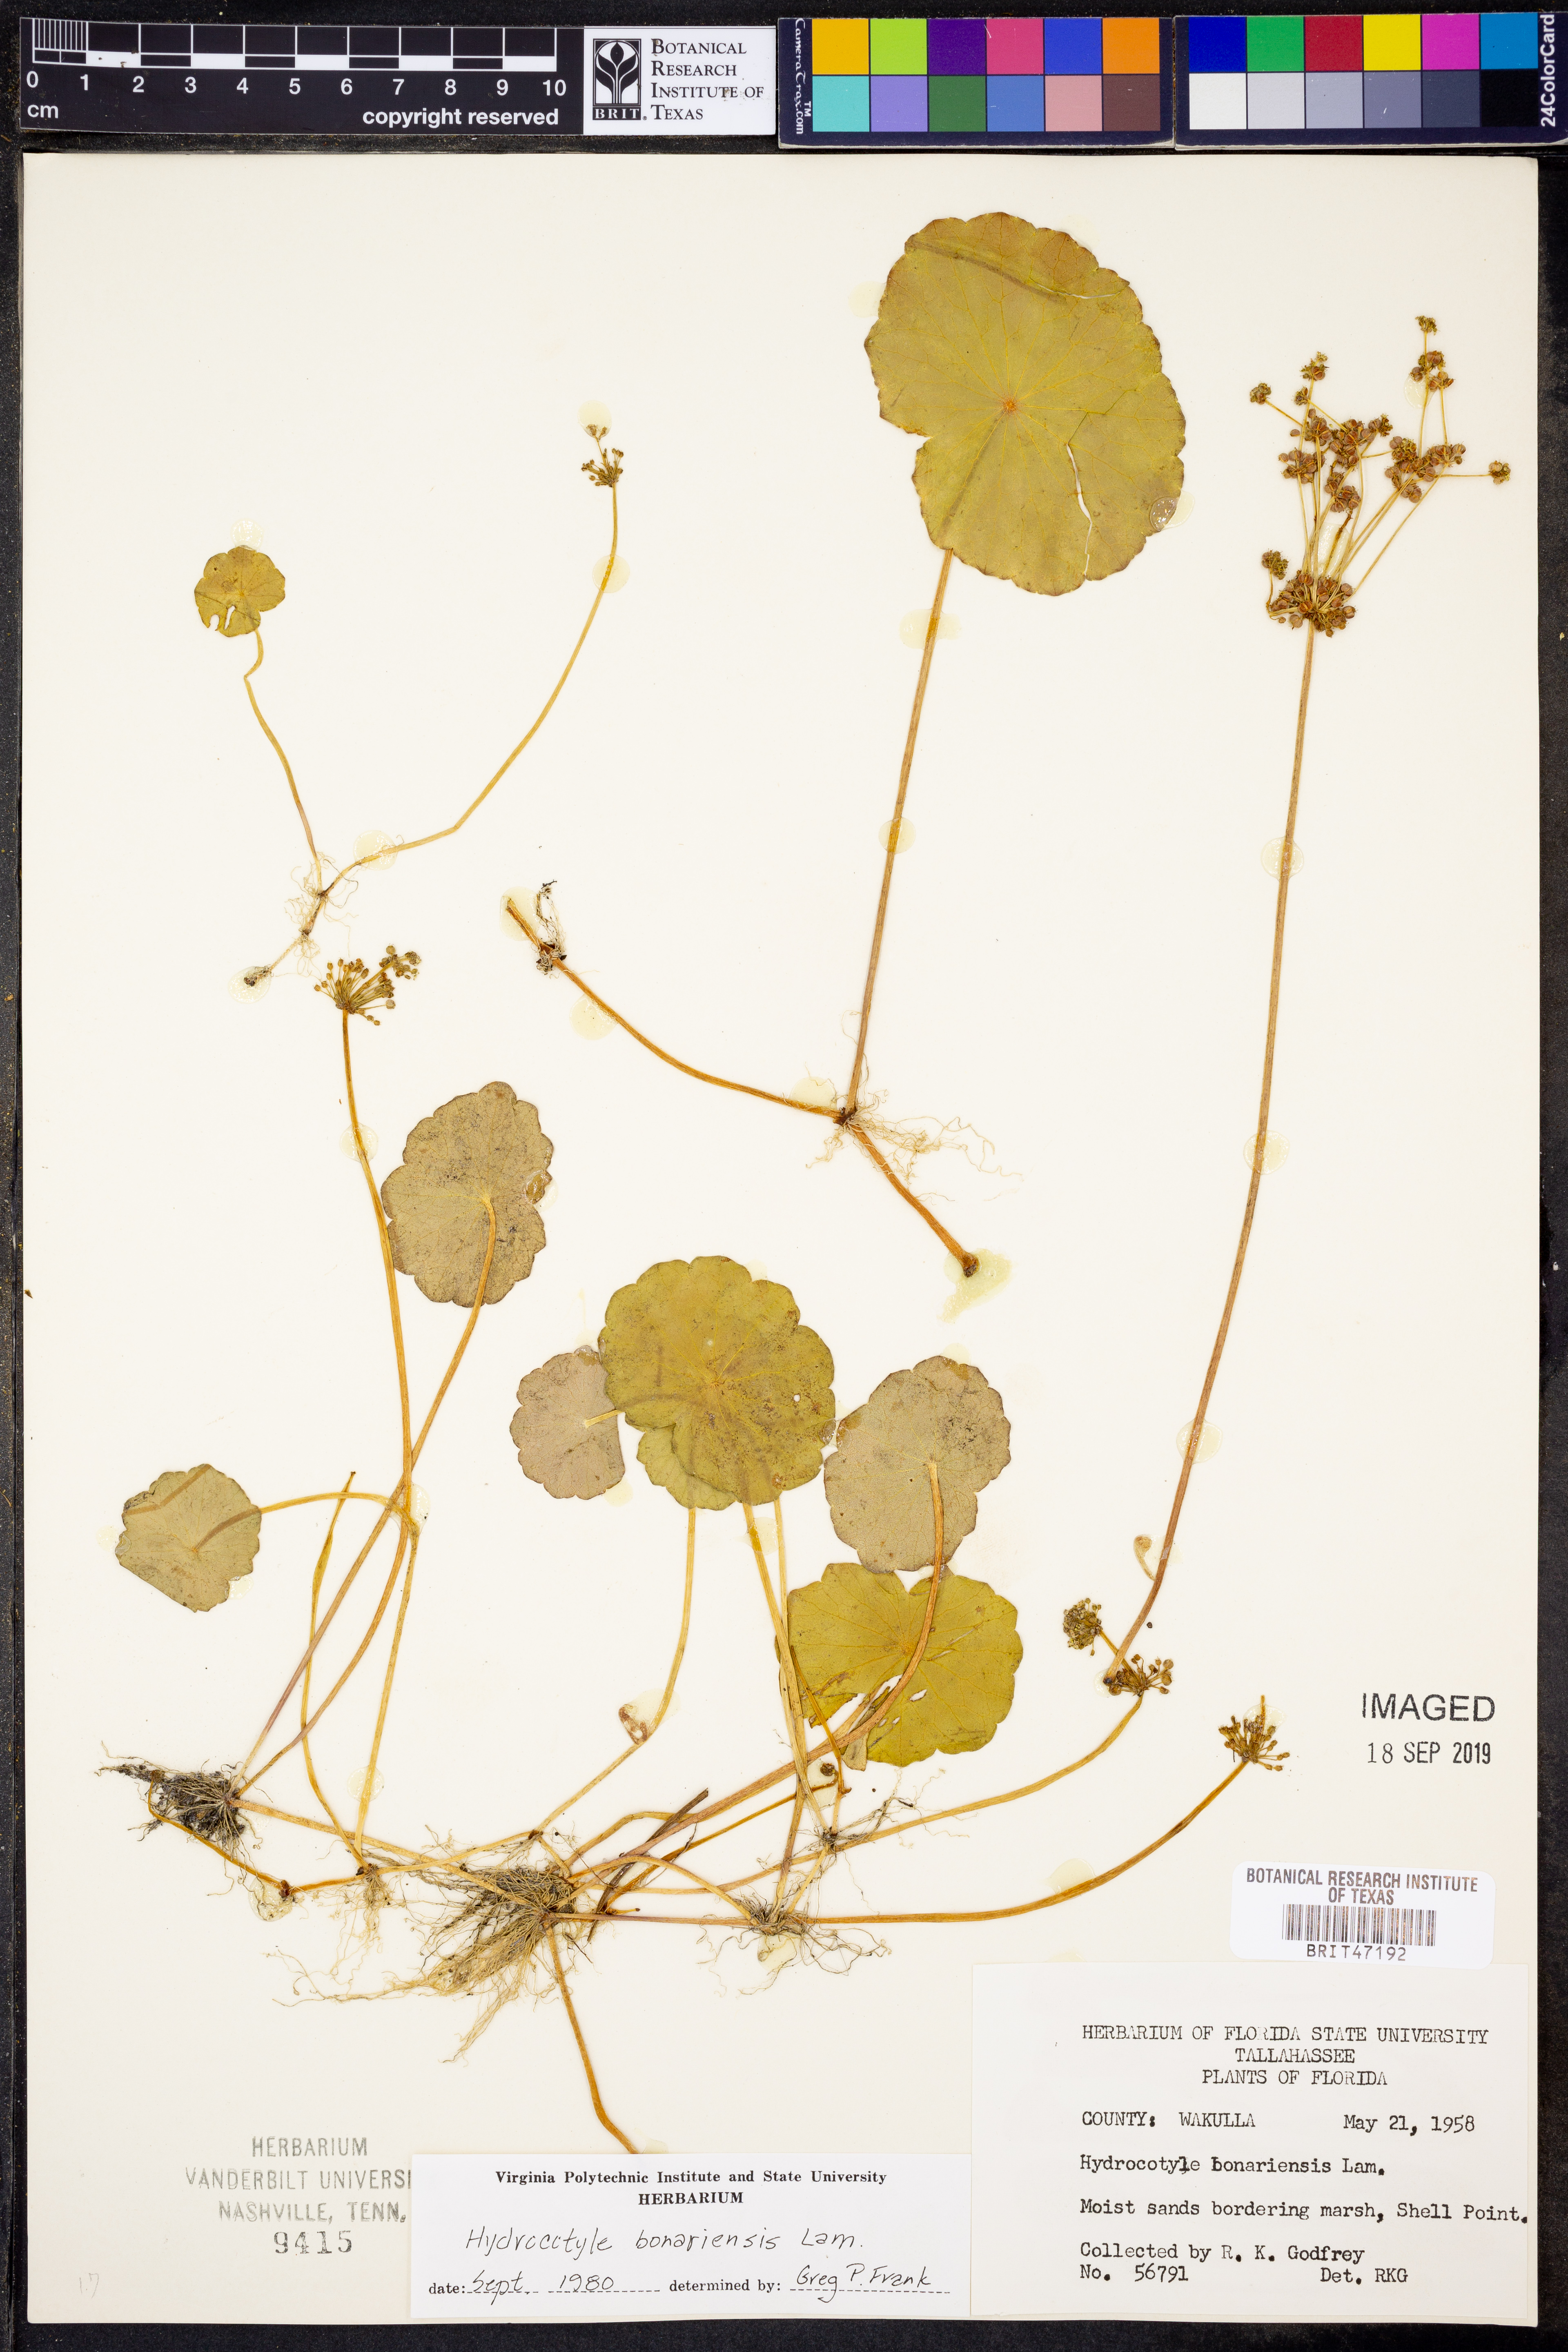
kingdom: Plantae
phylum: Tracheophyta
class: Magnoliopsida
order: Apiales
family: Araliaceae
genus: Hydrocotyle
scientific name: Hydrocotyle bonariensis
